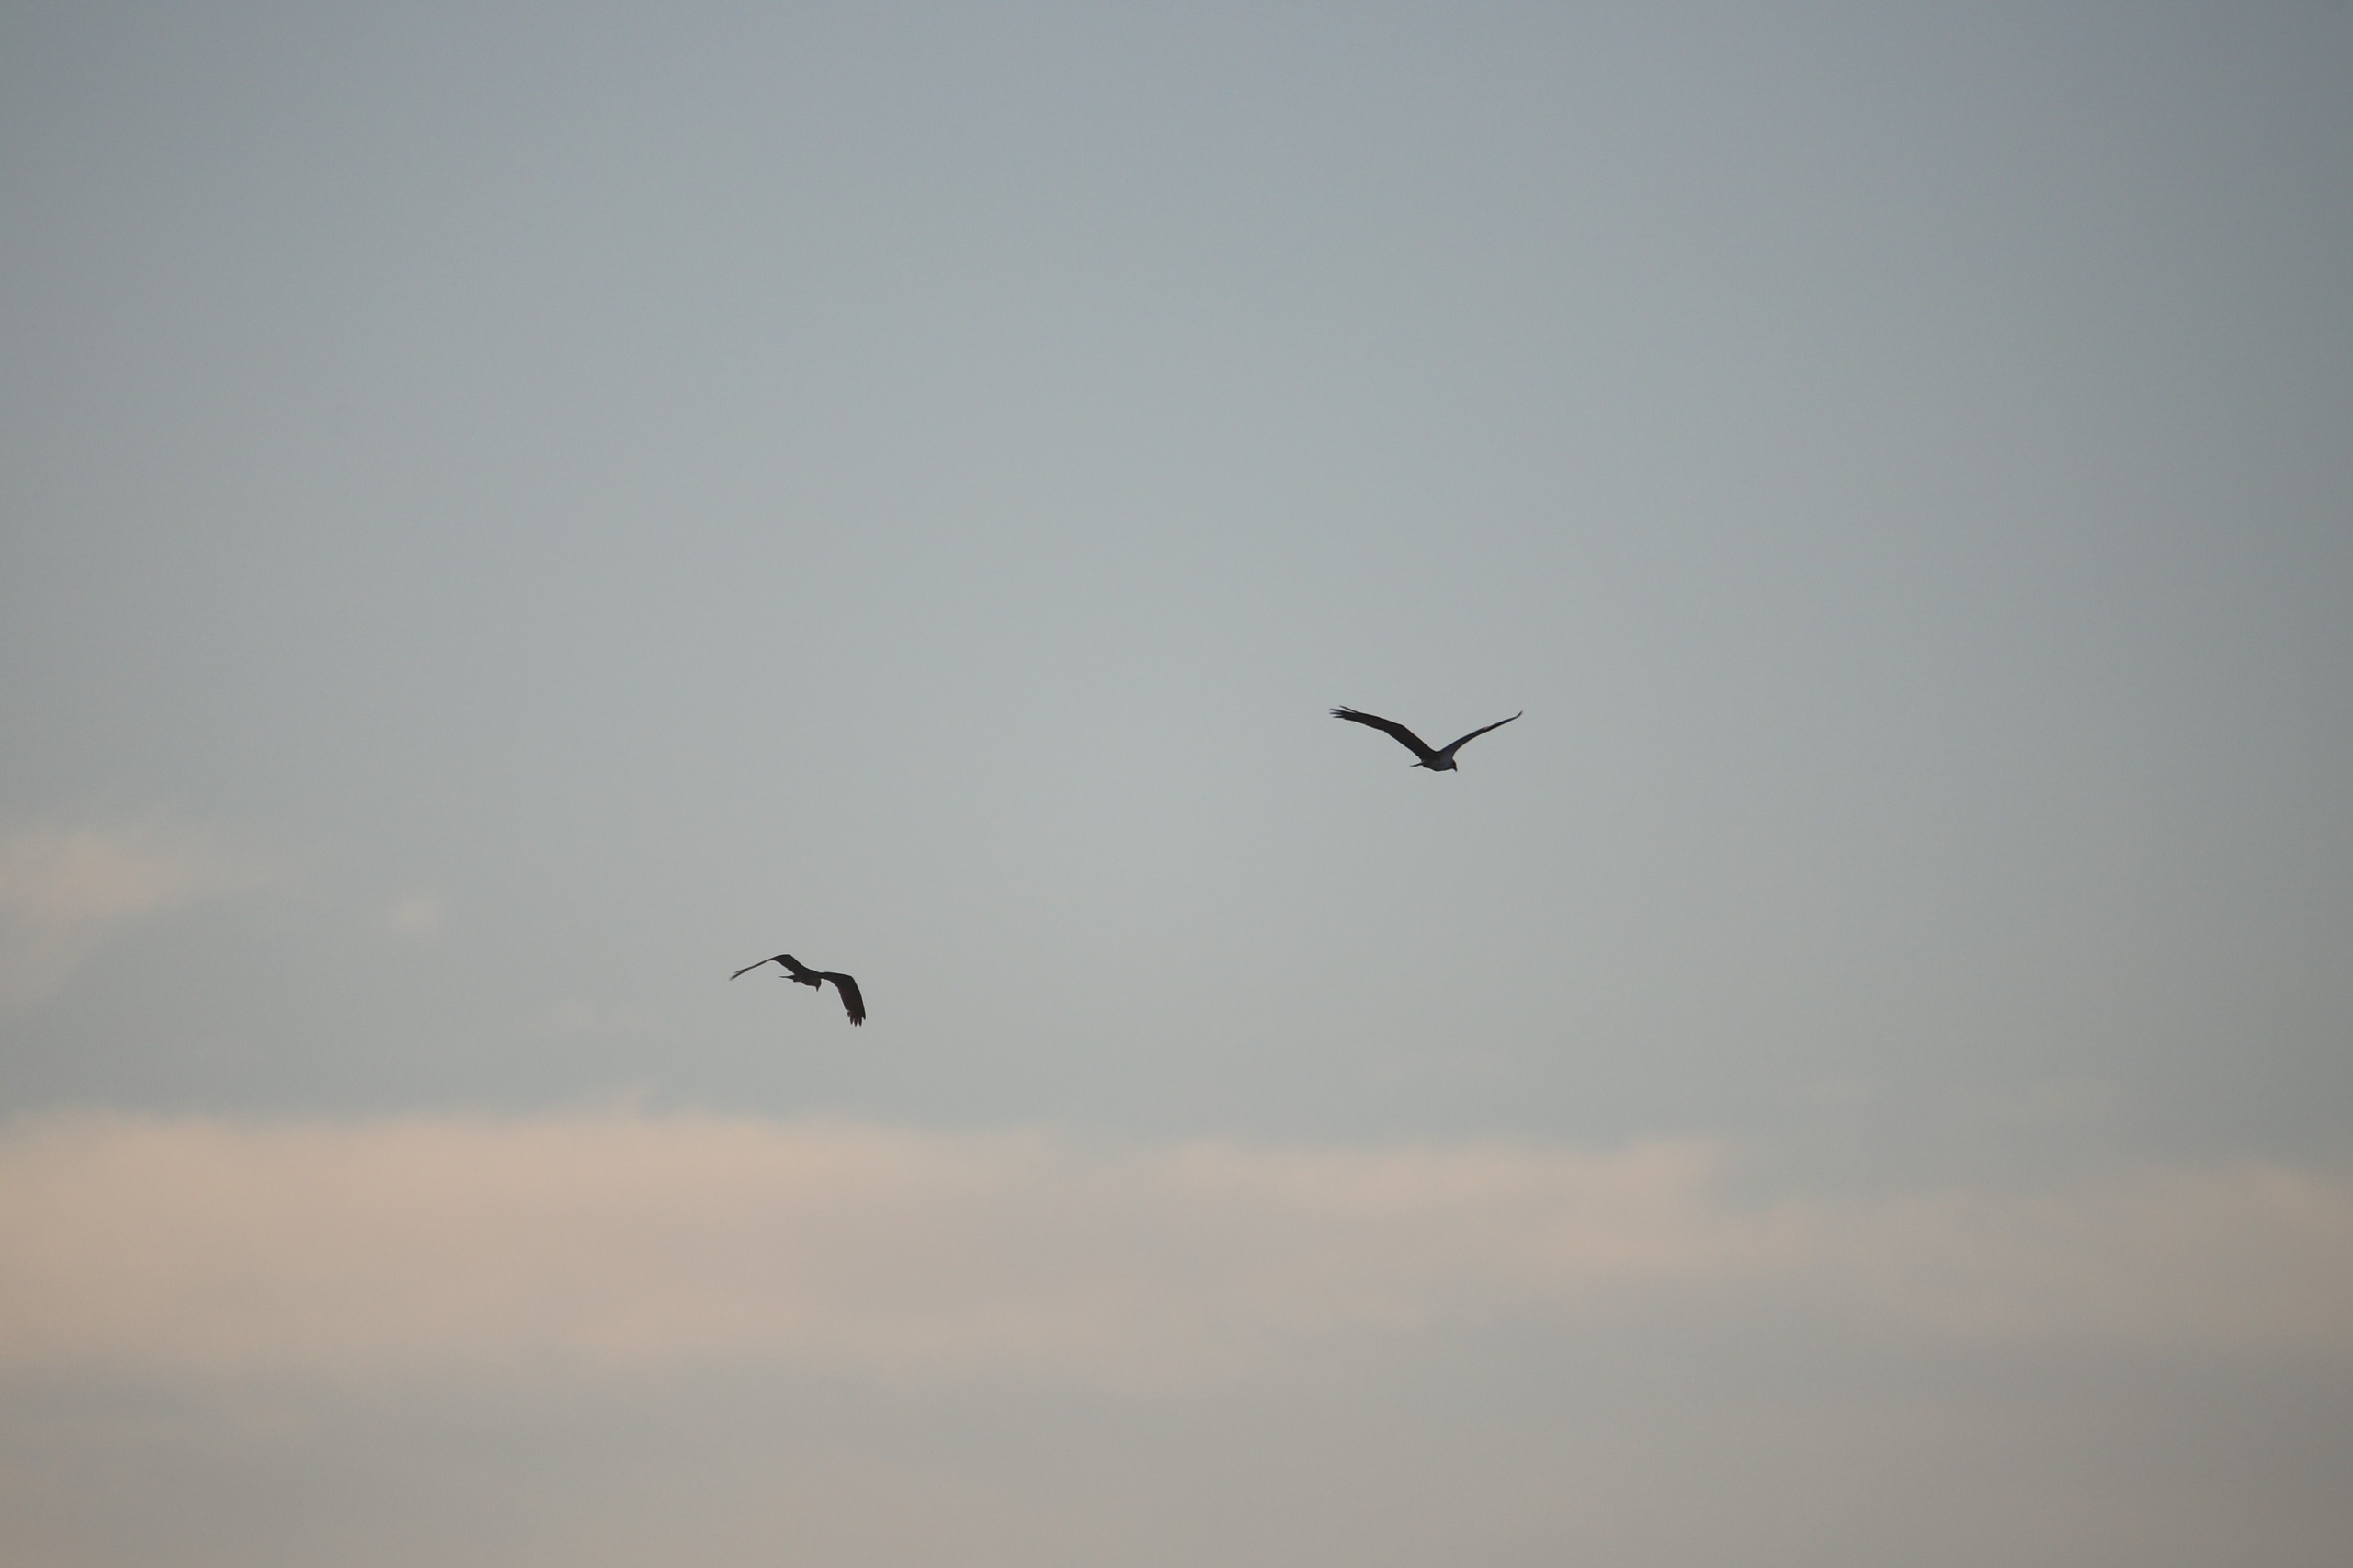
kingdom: Animalia
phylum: Chordata
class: Aves
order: Accipitriformes
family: Pandionidae
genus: Pandion
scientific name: Pandion haliaetus
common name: Fiskeørn
